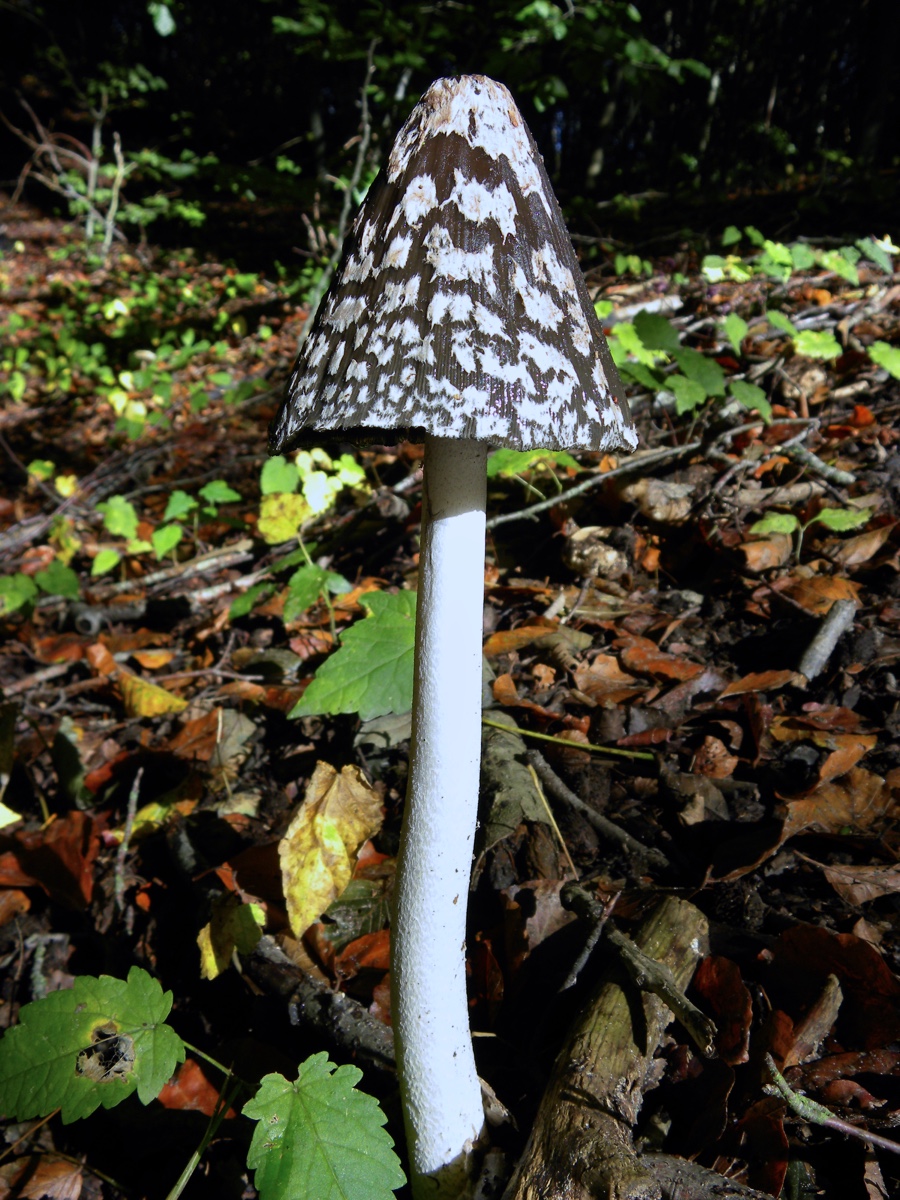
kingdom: Fungi
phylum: Basidiomycota
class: Agaricomycetes
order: Agaricales
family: Psathyrellaceae
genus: Coprinopsis
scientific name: Coprinopsis picacea
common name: skade-blækhat
